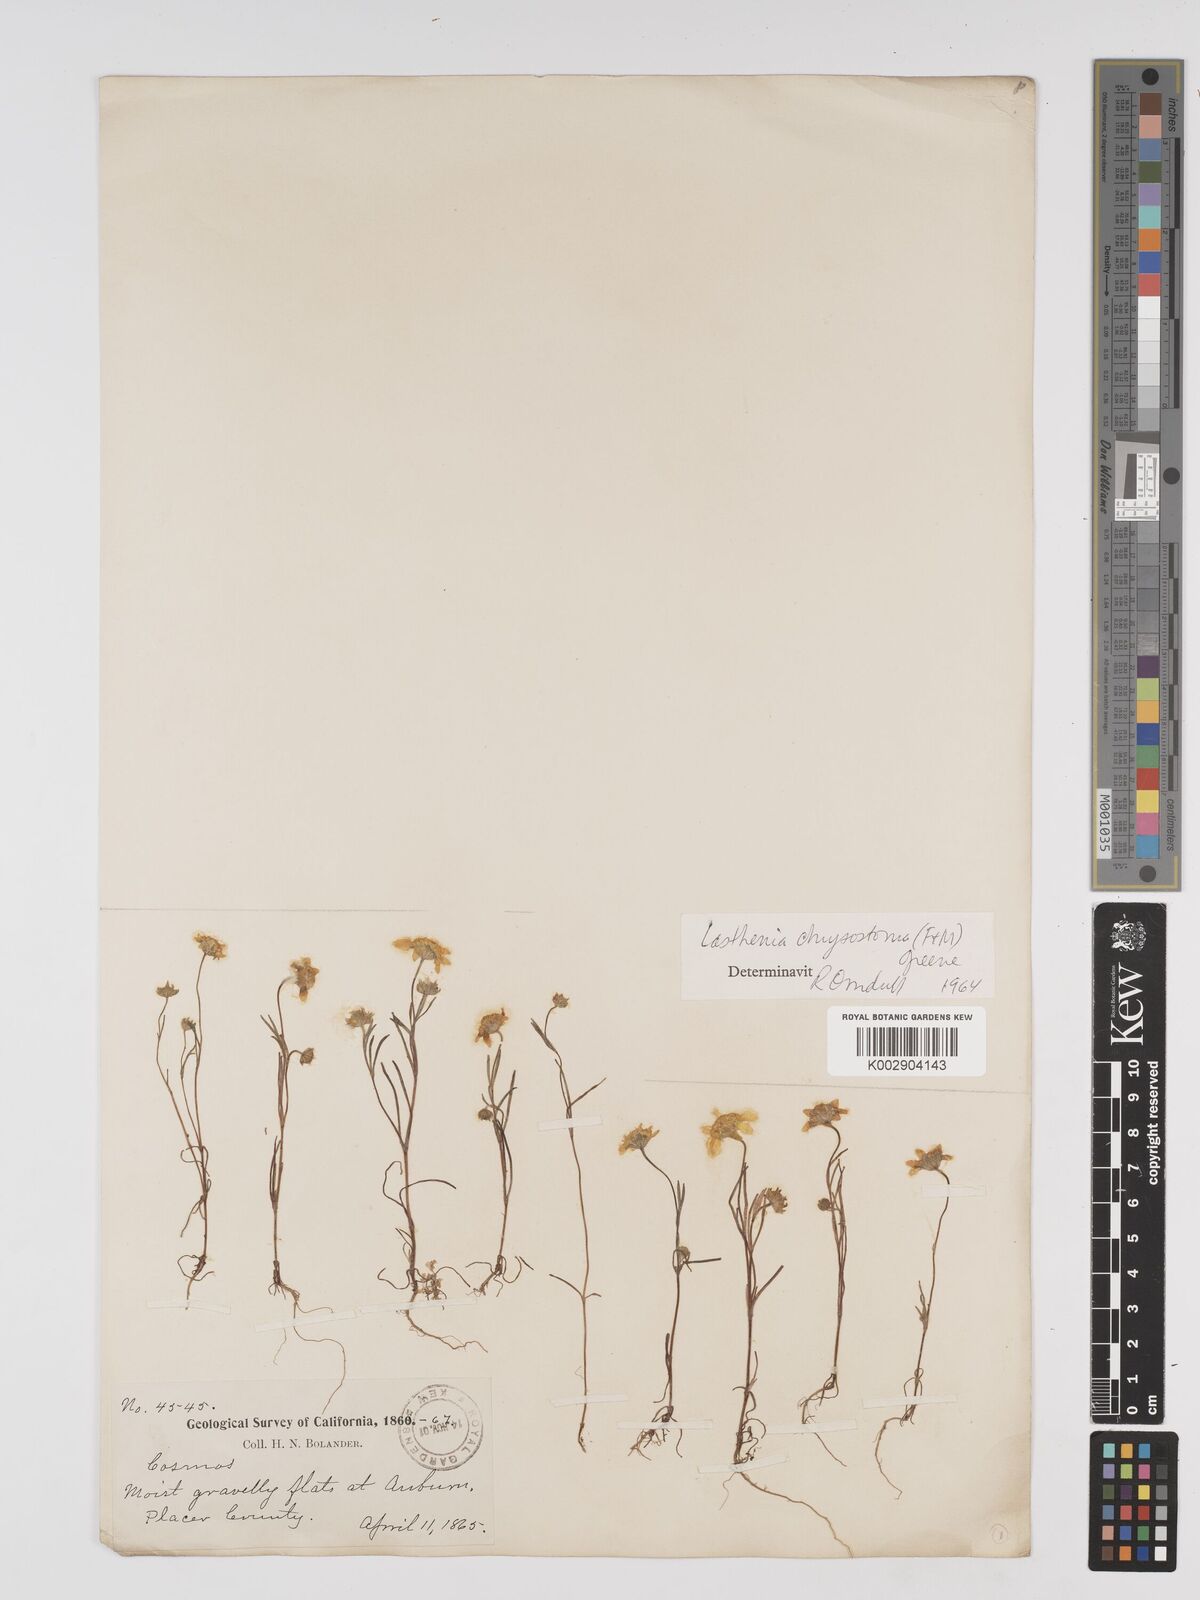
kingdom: Plantae
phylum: Tracheophyta
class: Magnoliopsida
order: Asterales
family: Asteraceae
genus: Lasthenia
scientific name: Lasthenia chrysantha
